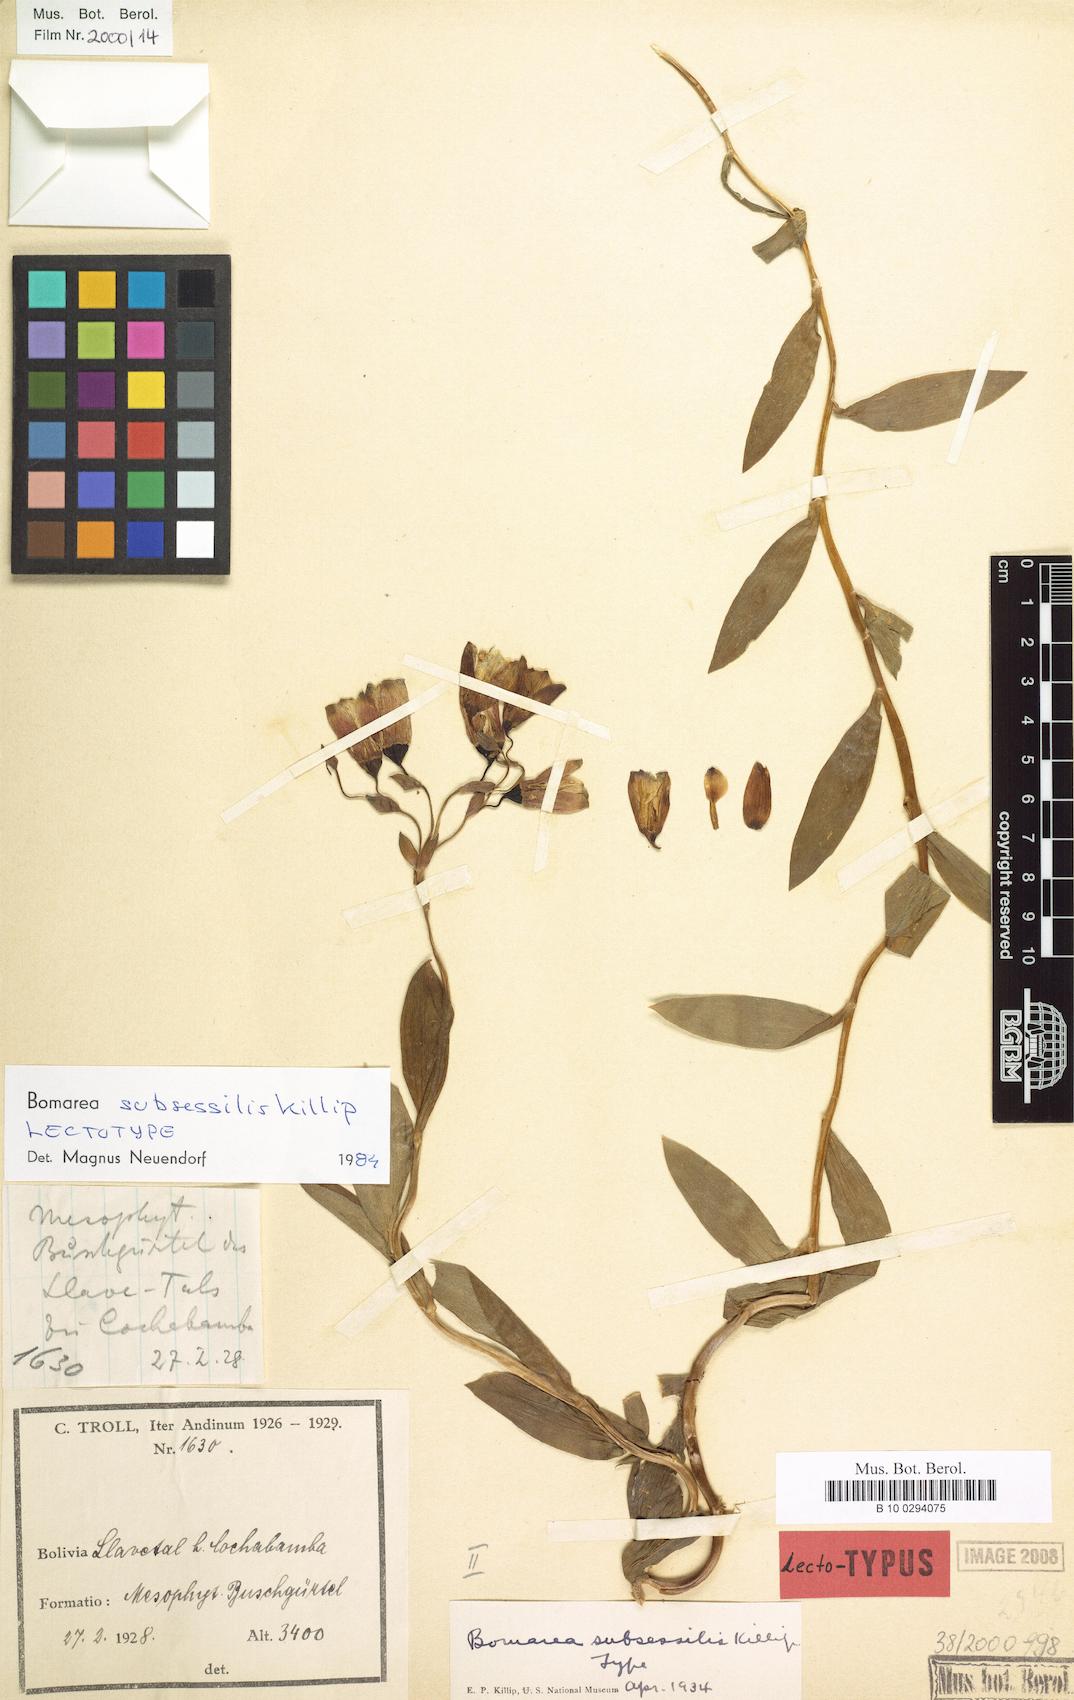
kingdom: Plantae
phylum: Tracheophyta
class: Liliopsida
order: Liliales
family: Alstroemeriaceae
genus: Bomarea
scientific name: Bomarea ovata
